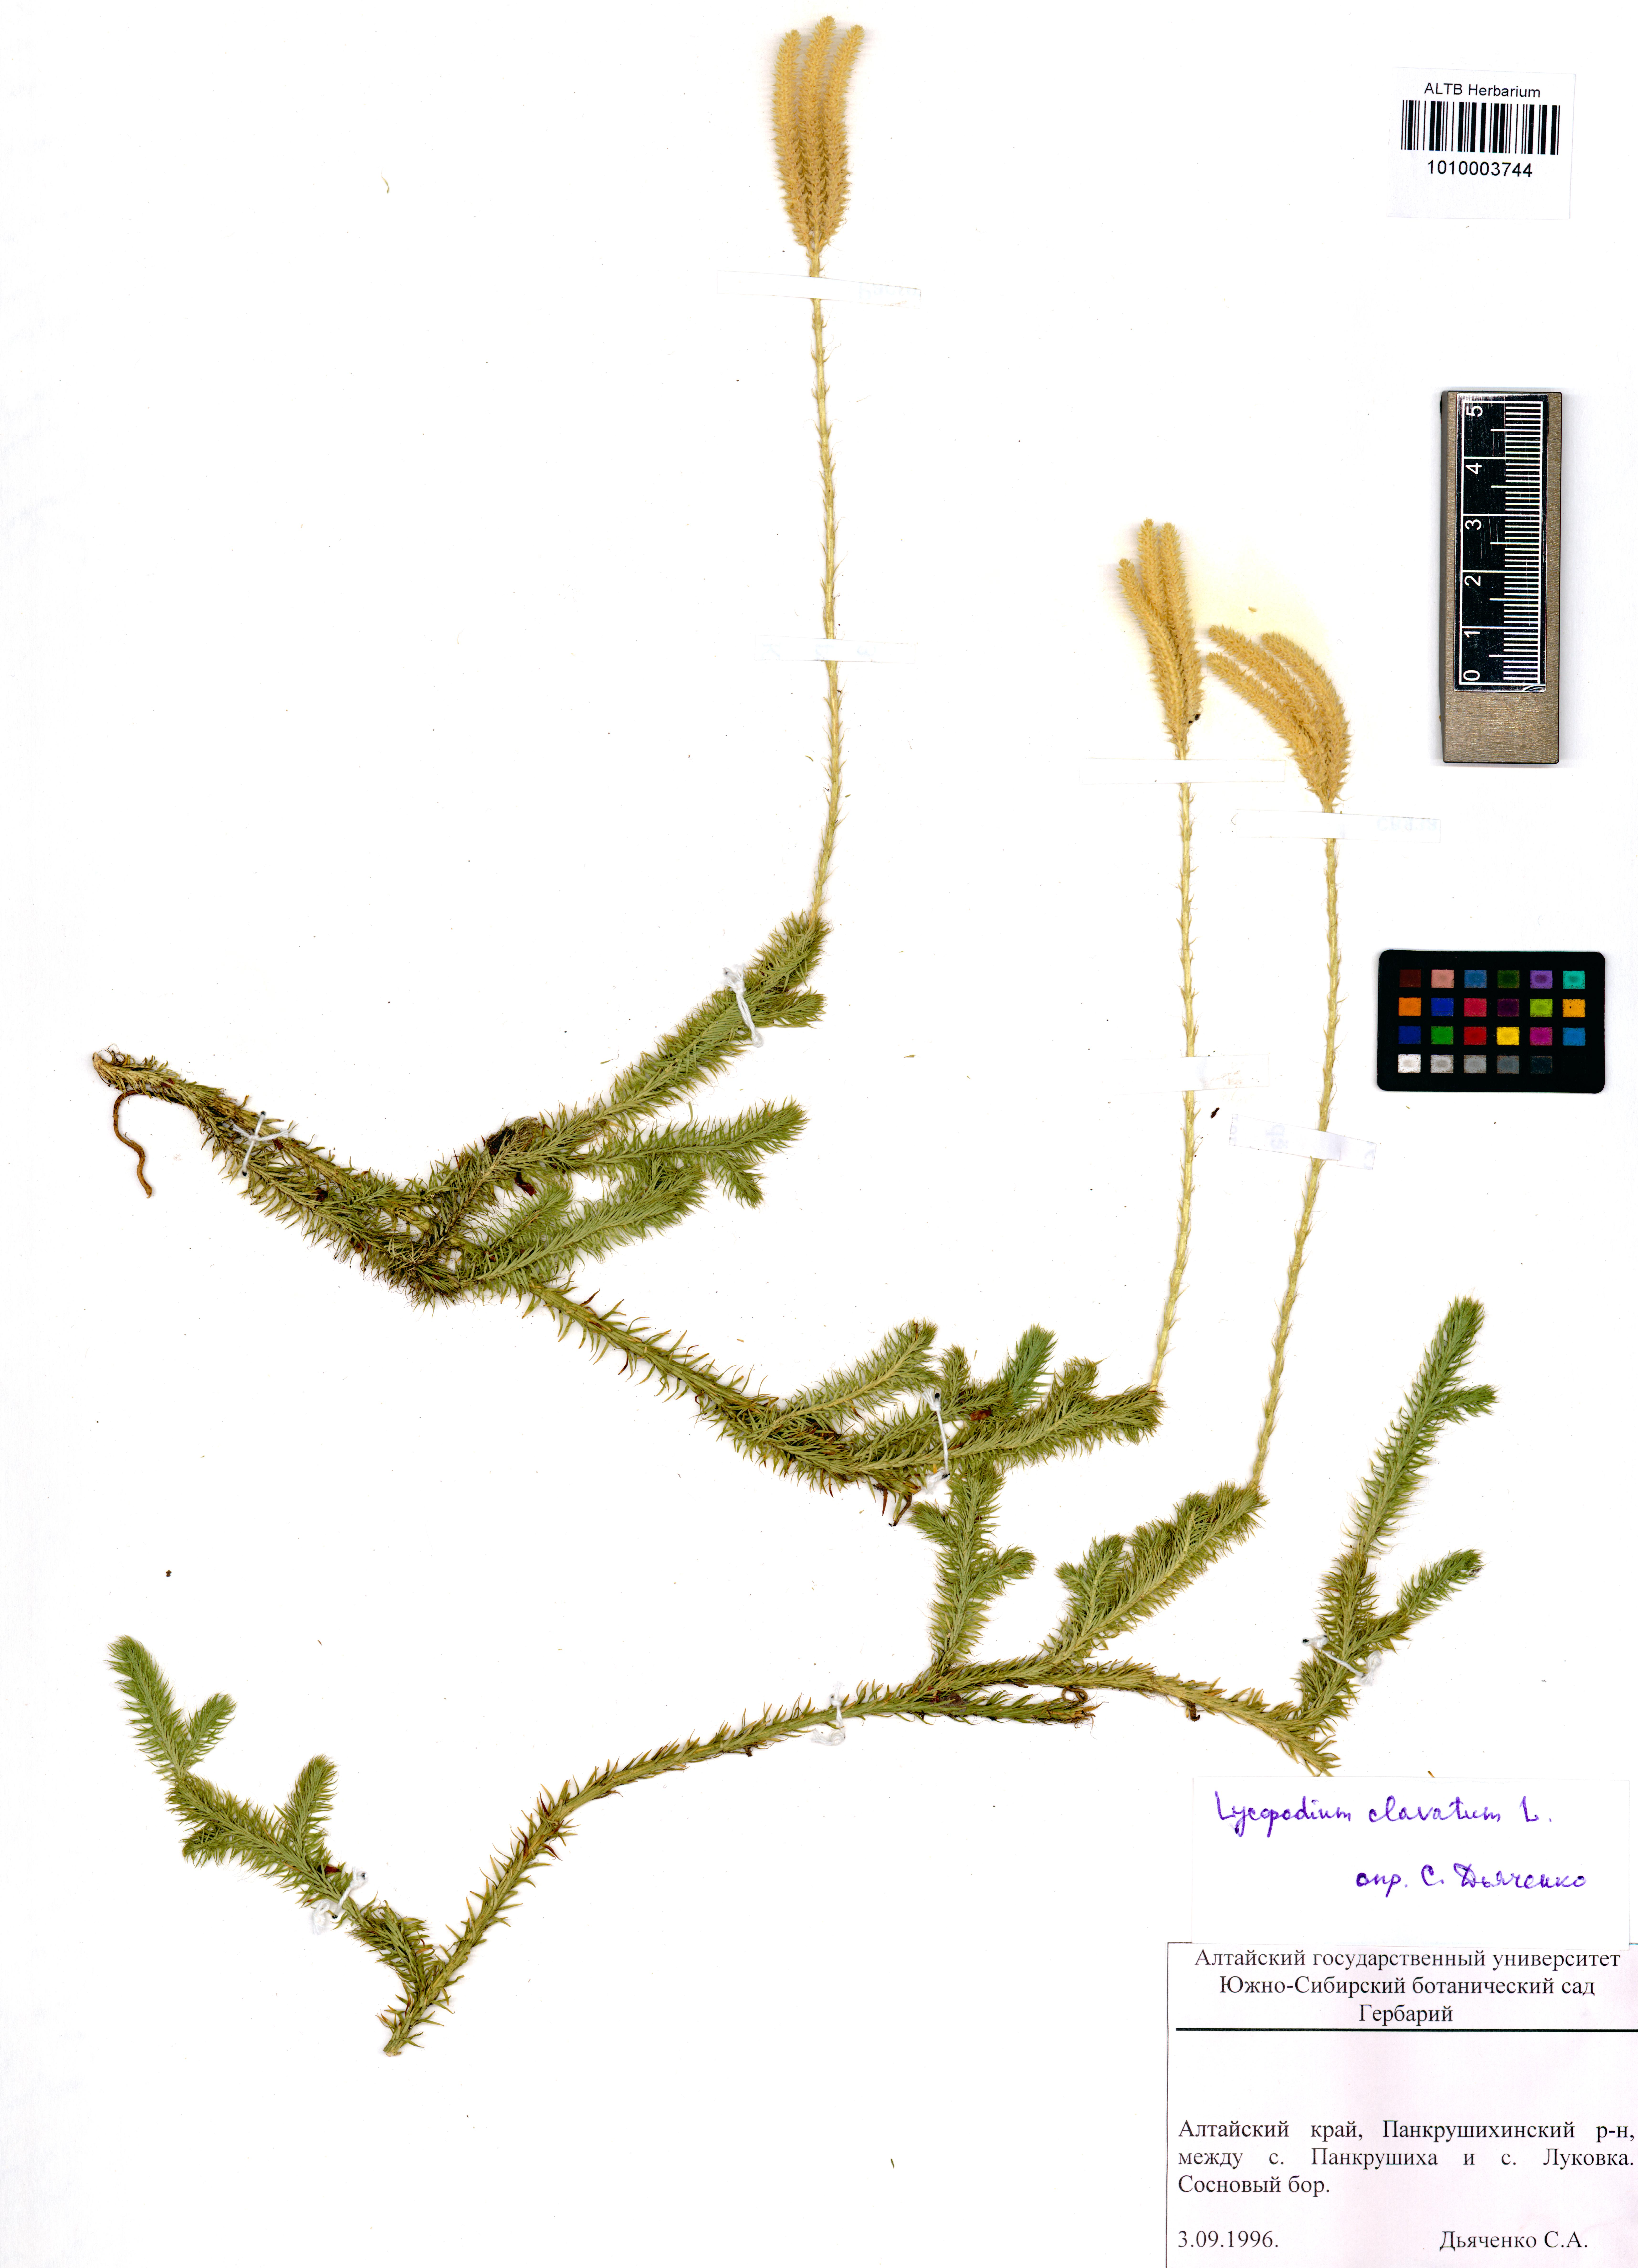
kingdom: Plantae
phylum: Tracheophyta
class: Lycopodiopsida
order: Lycopodiales
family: Lycopodiaceae
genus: Lycopodium
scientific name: Lycopodium clavatum
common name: Stag's-horn clubmoss
